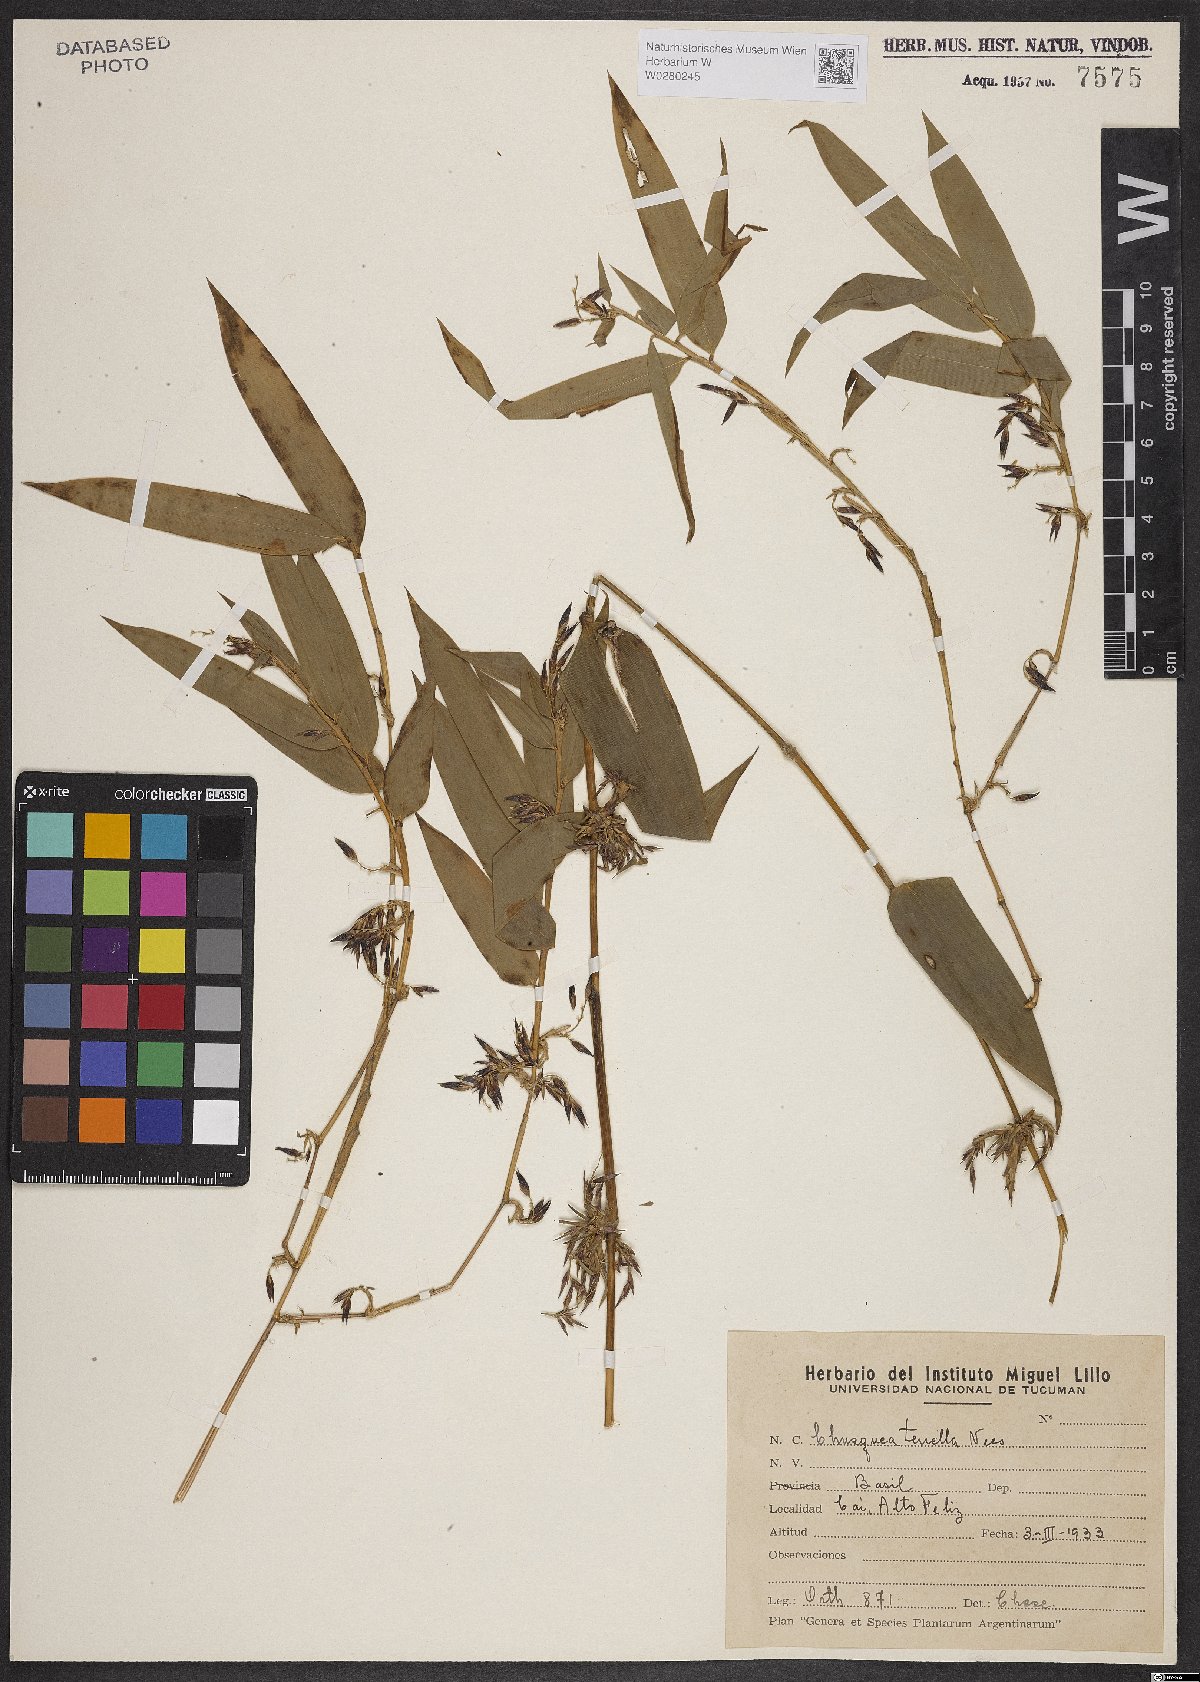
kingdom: Plantae
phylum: Tracheophyta
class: Liliopsida
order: Poales
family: Poaceae
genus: Chusquea
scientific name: Chusquea tenella
